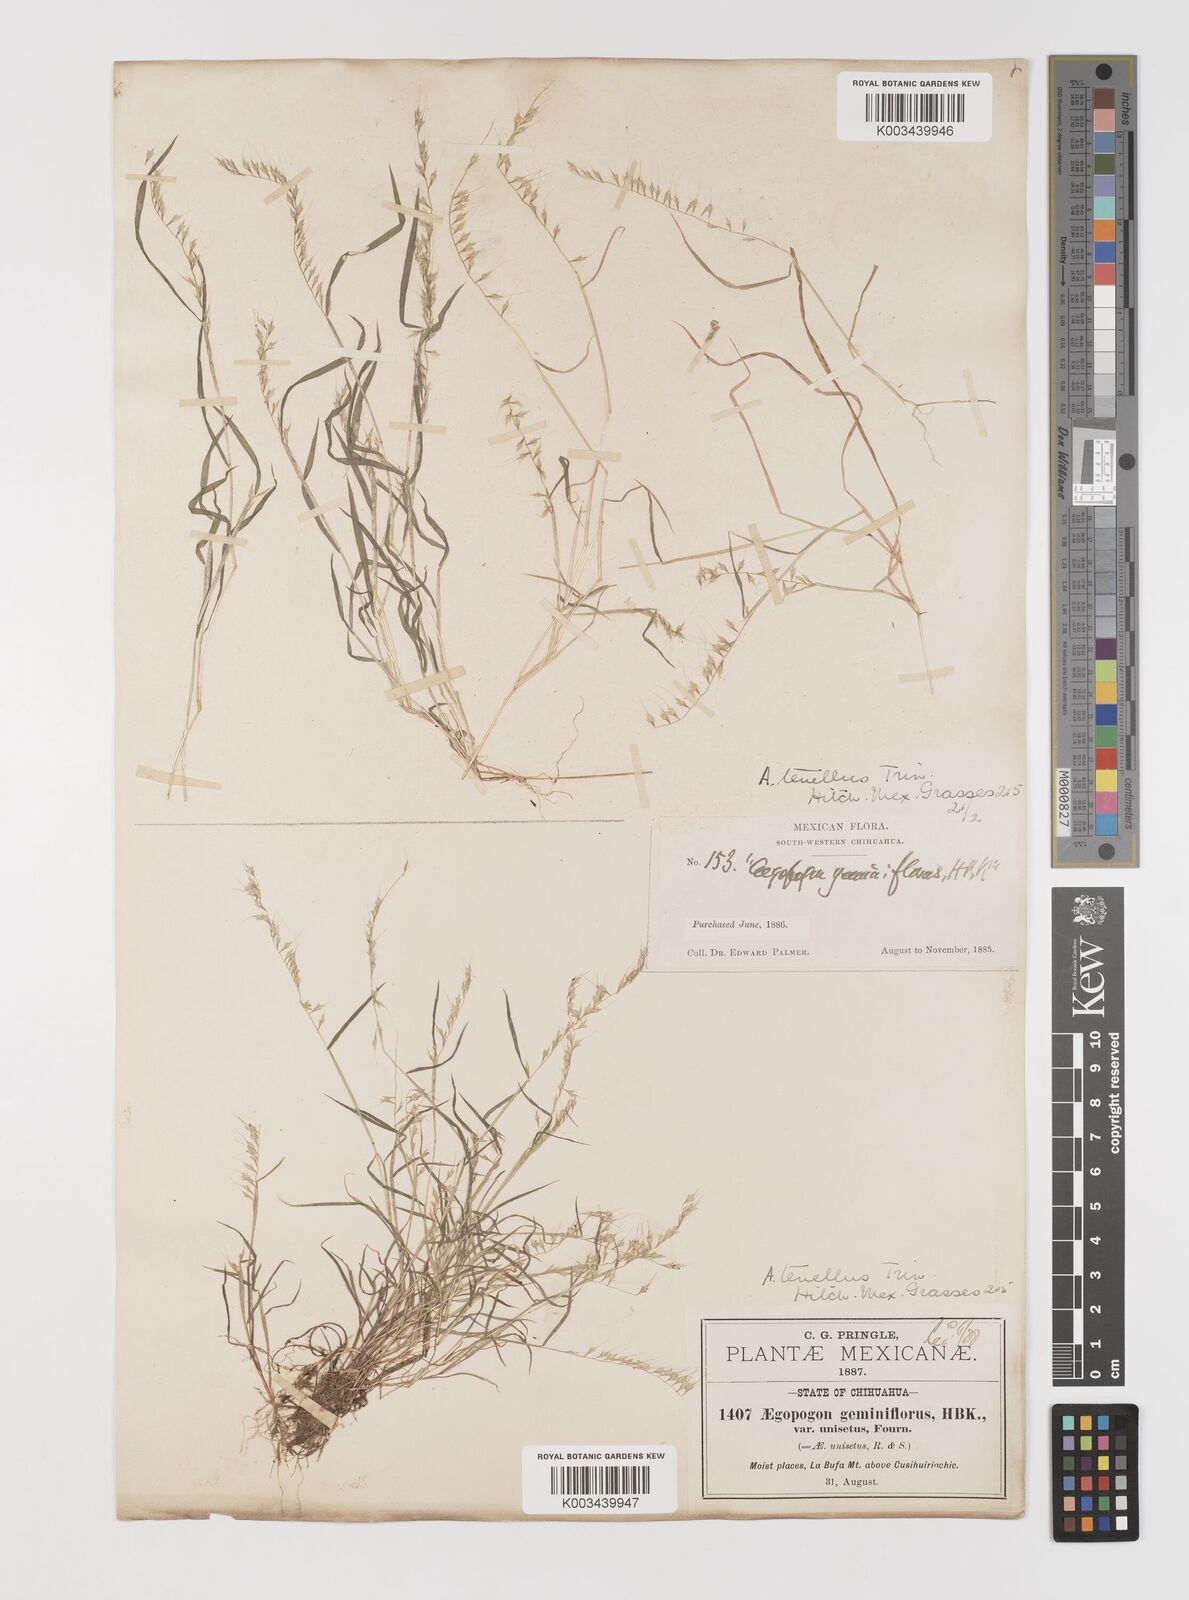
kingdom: Plantae
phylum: Tracheophyta
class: Liliopsida
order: Poales
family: Poaceae
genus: Muhlenbergia
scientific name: Muhlenbergia uniseta
